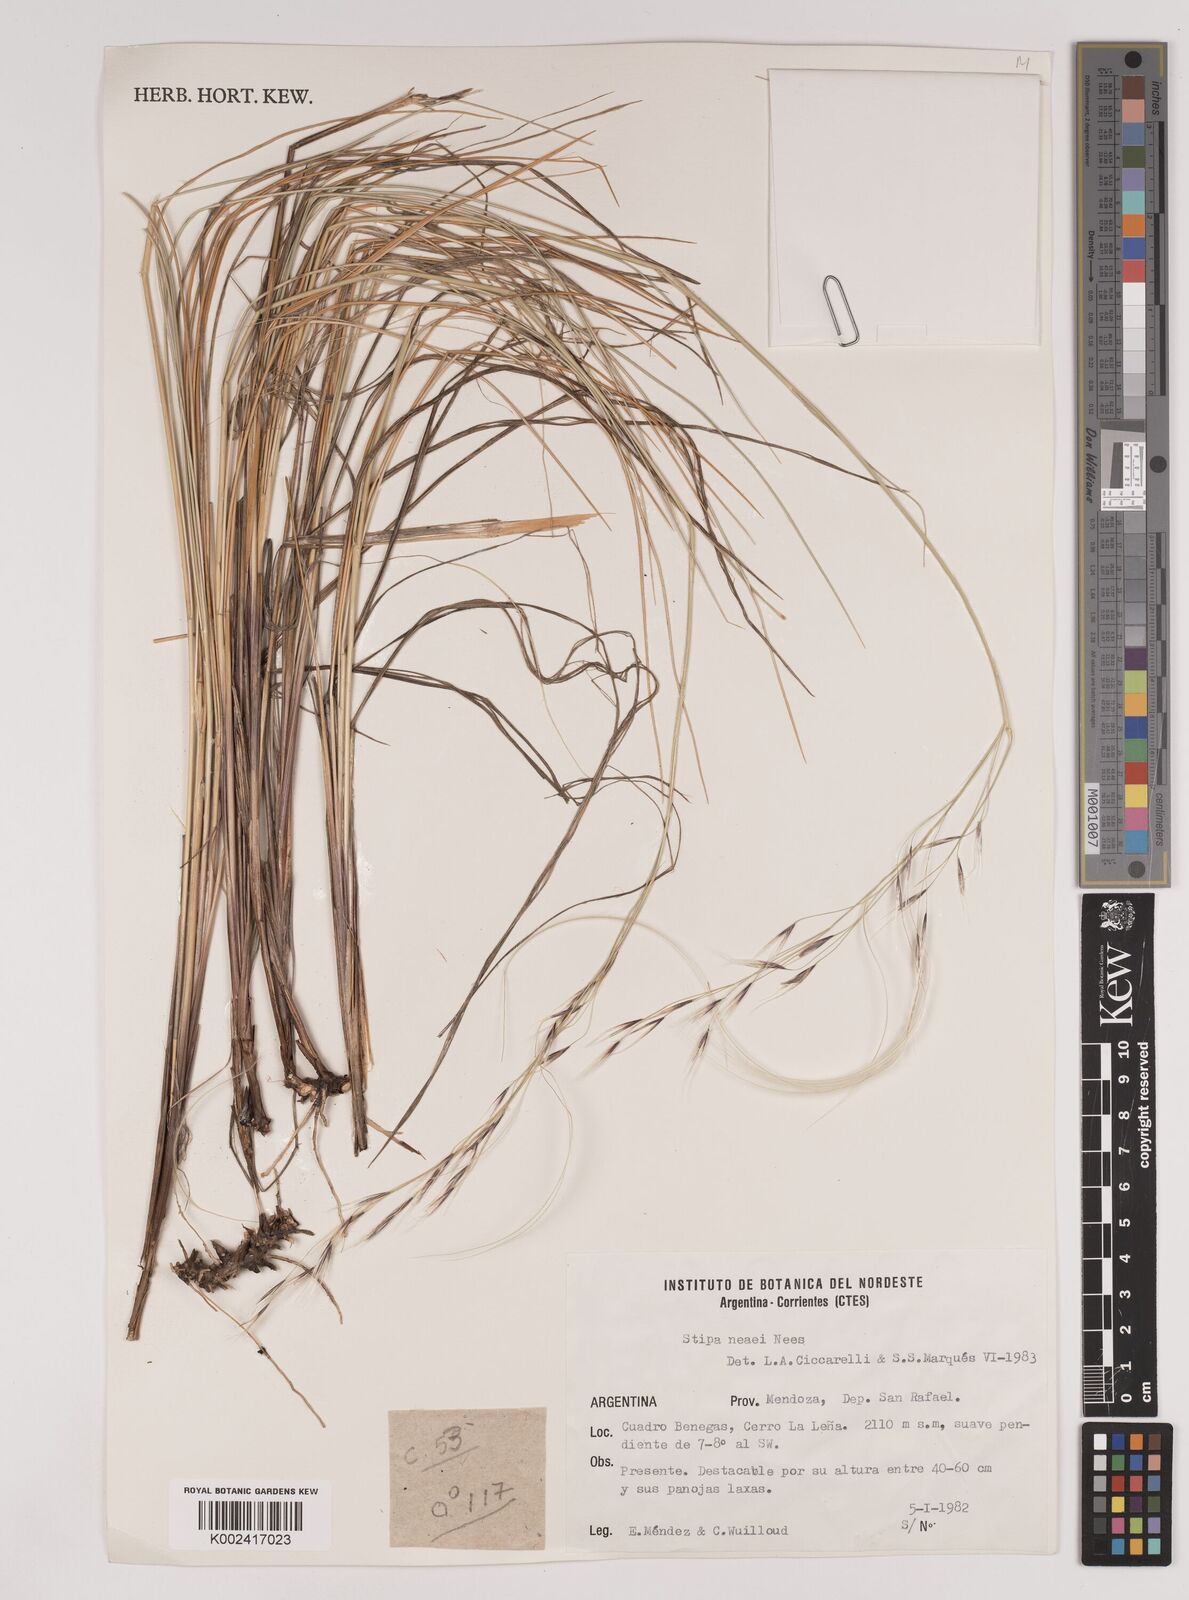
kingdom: Plantae
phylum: Tracheophyta
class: Liliopsida
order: Poales
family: Poaceae
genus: Stipa
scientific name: Stipa neaei
